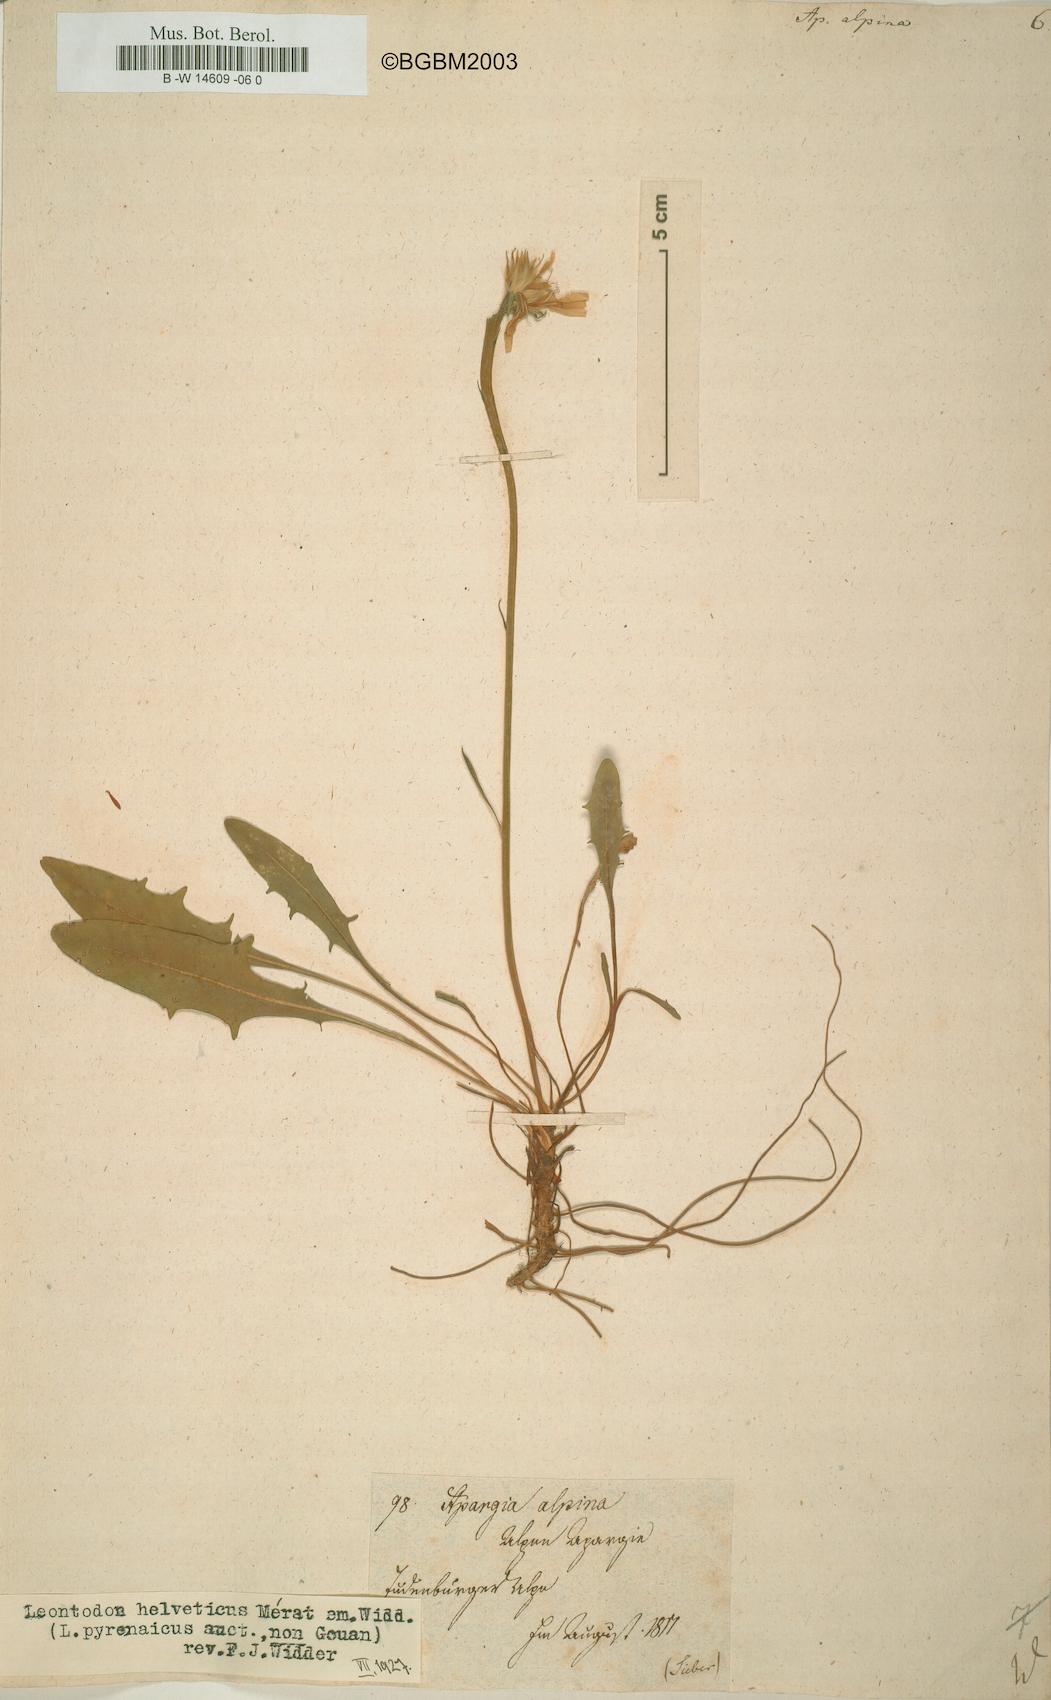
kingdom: Plantae
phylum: Tracheophyta
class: Magnoliopsida
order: Asterales
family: Asteraceae
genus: Scorzoneroides
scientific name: Scorzoneroides pyrenaica
